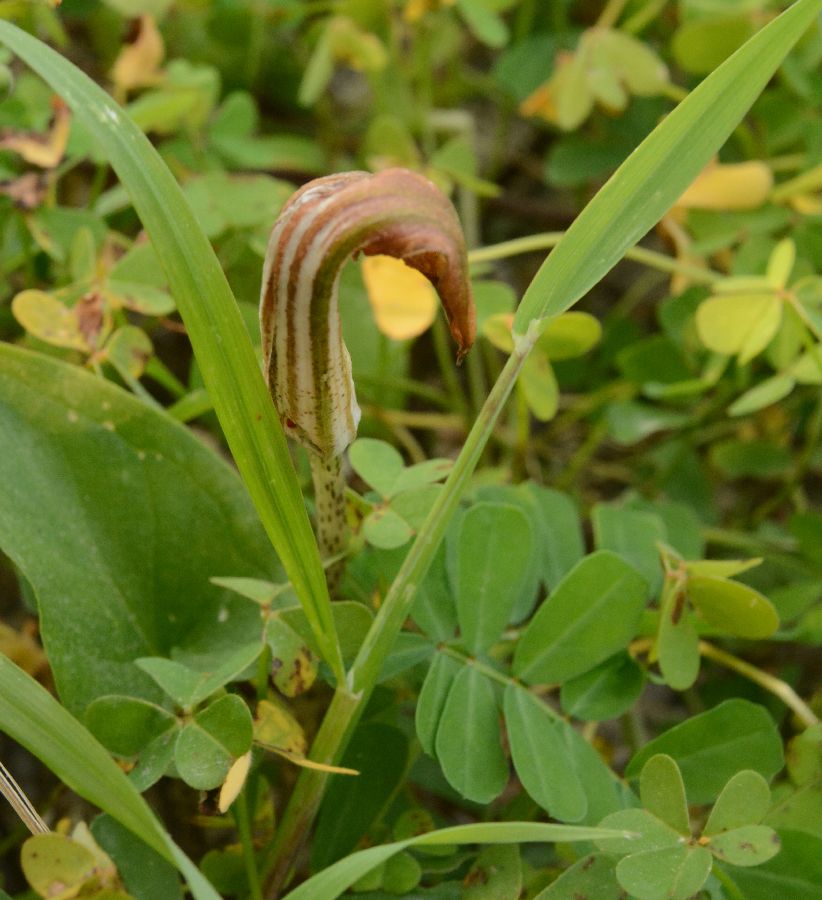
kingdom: Plantae
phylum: Tracheophyta
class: Liliopsida
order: Alismatales
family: Araceae
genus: Arisarum
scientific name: Arisarum vulgare
